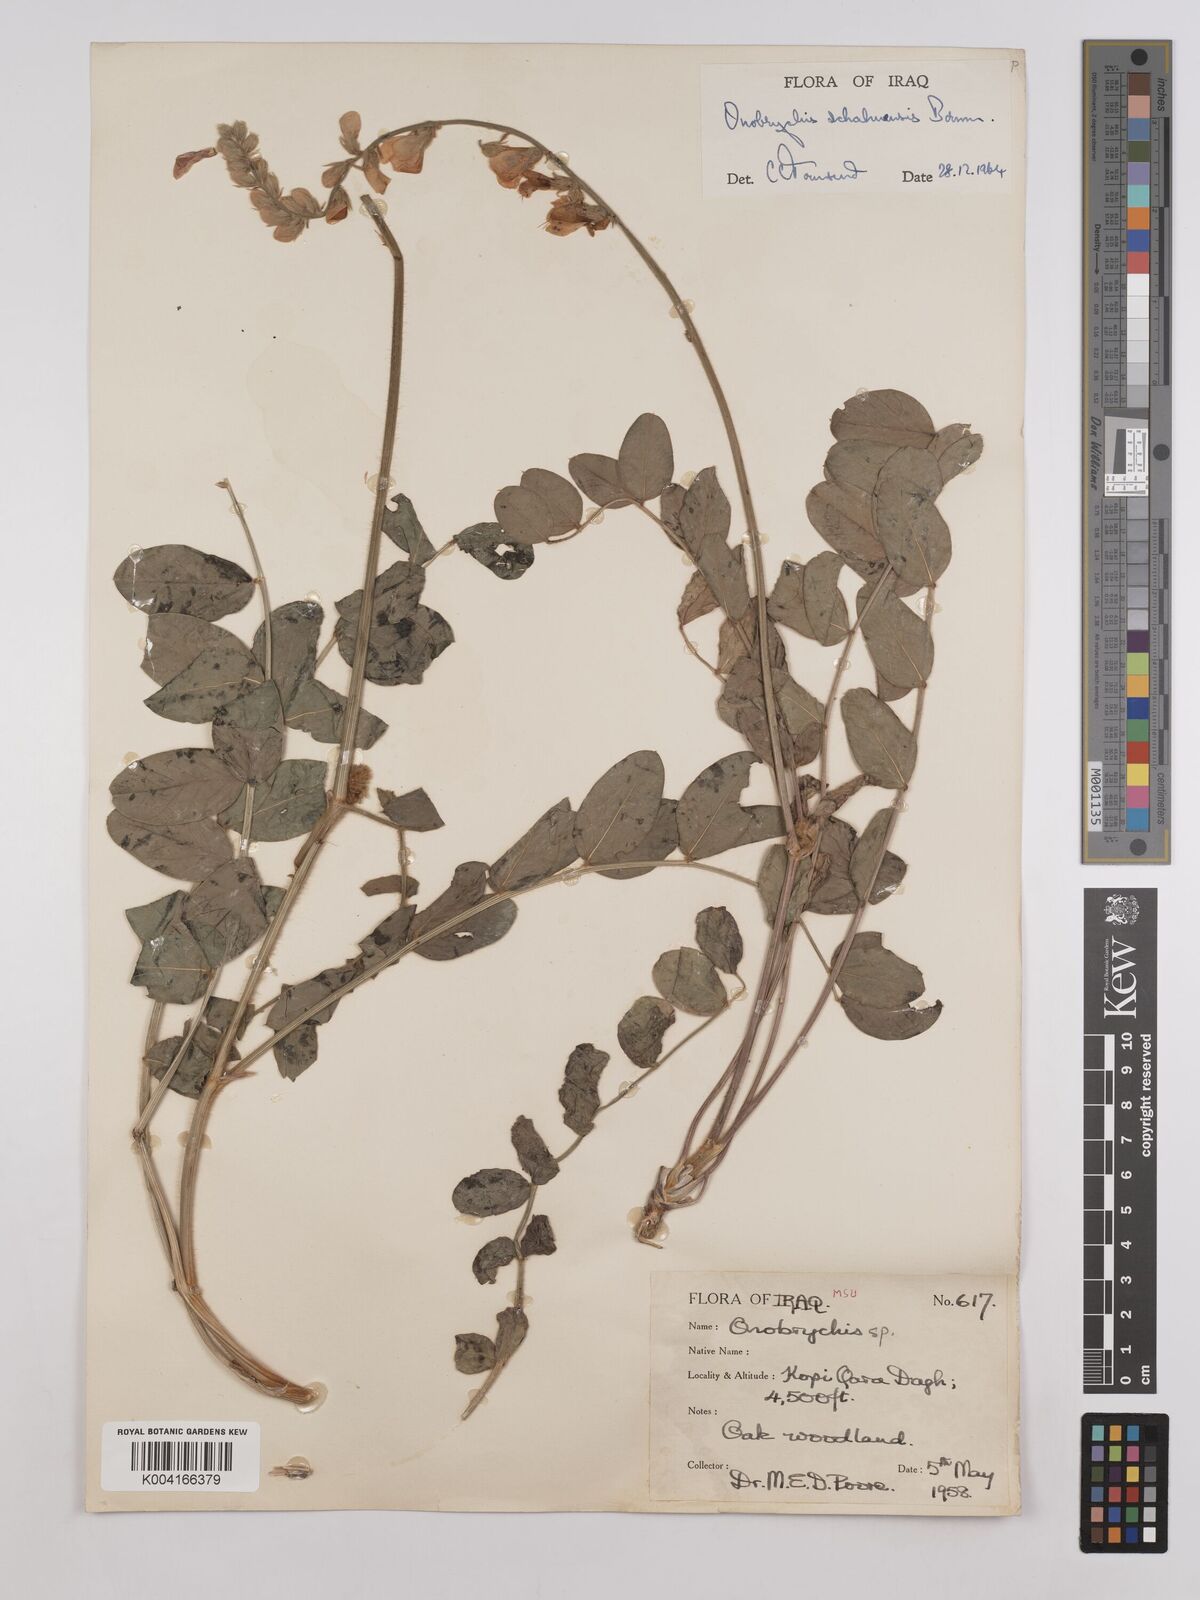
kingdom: Plantae
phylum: Tracheophyta
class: Magnoliopsida
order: Fabales
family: Fabaceae
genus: Onobrychis
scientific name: Onobrychis schahuensis
